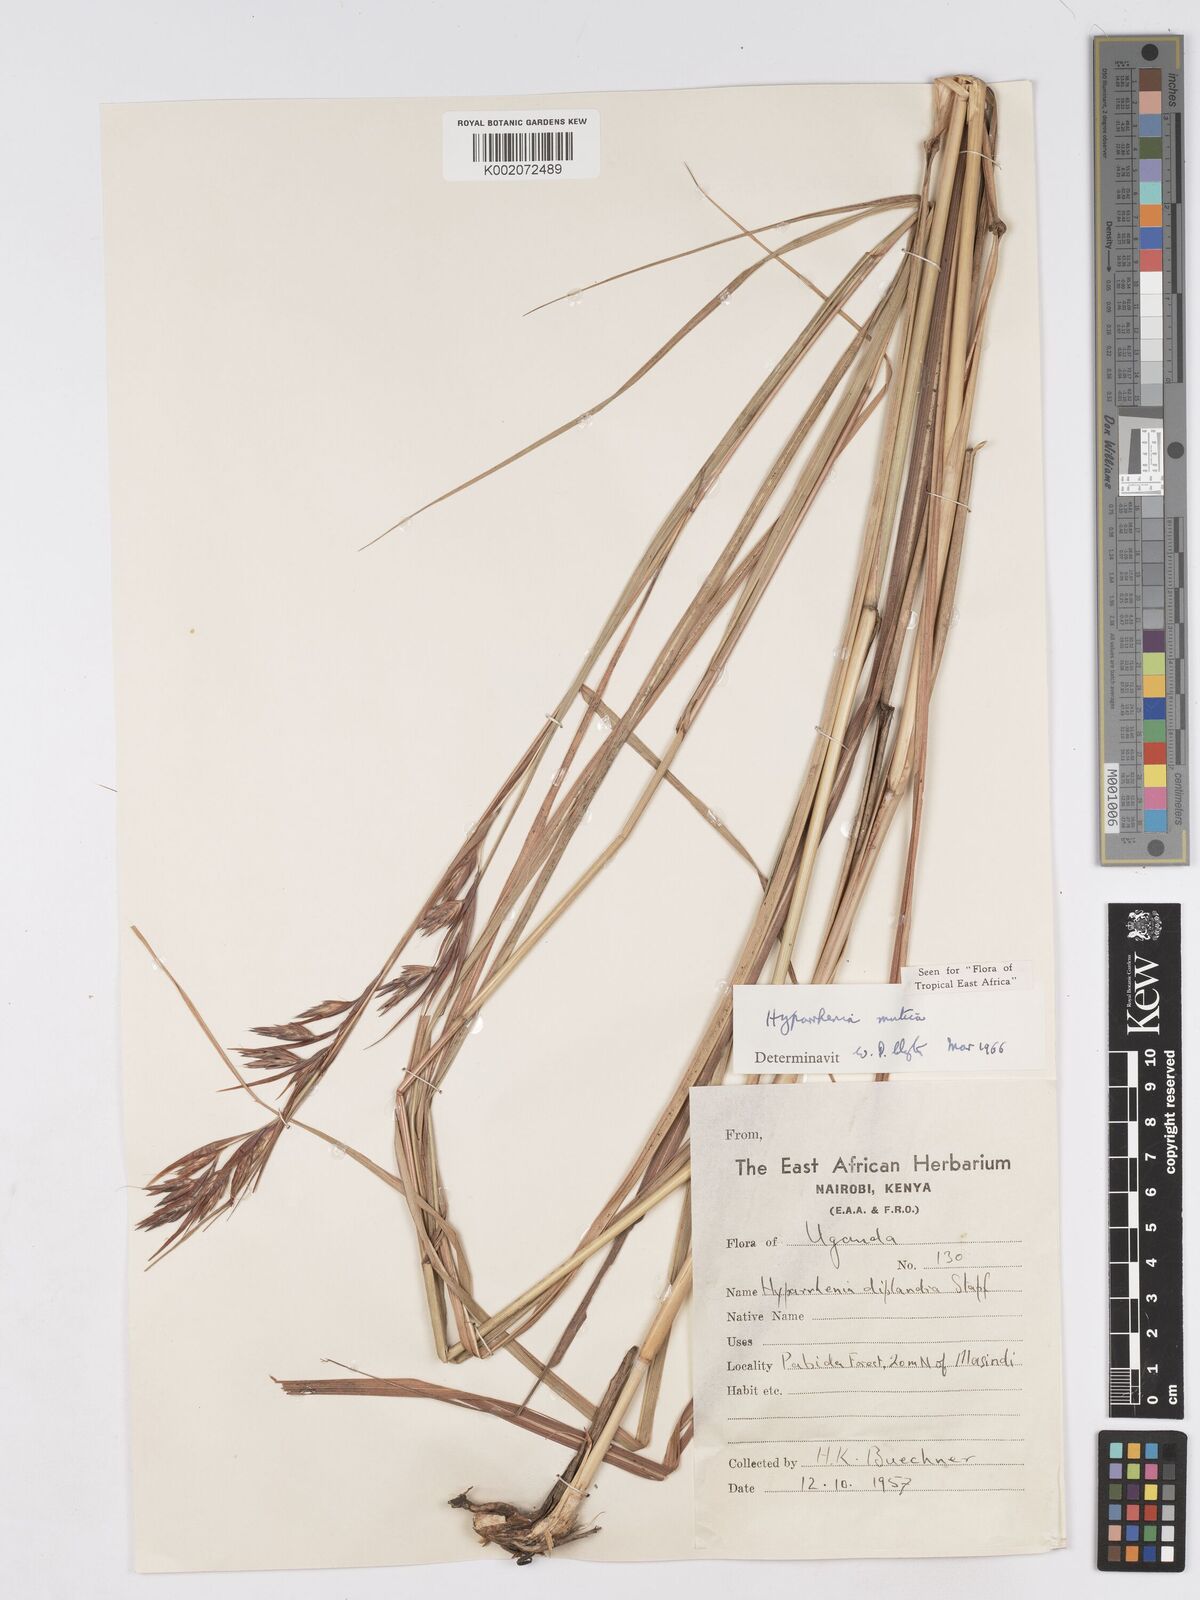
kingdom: Plantae
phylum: Tracheophyta
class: Liliopsida
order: Poales
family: Poaceae
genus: Hyparrhenia
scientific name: Hyparrhenia diplandra
